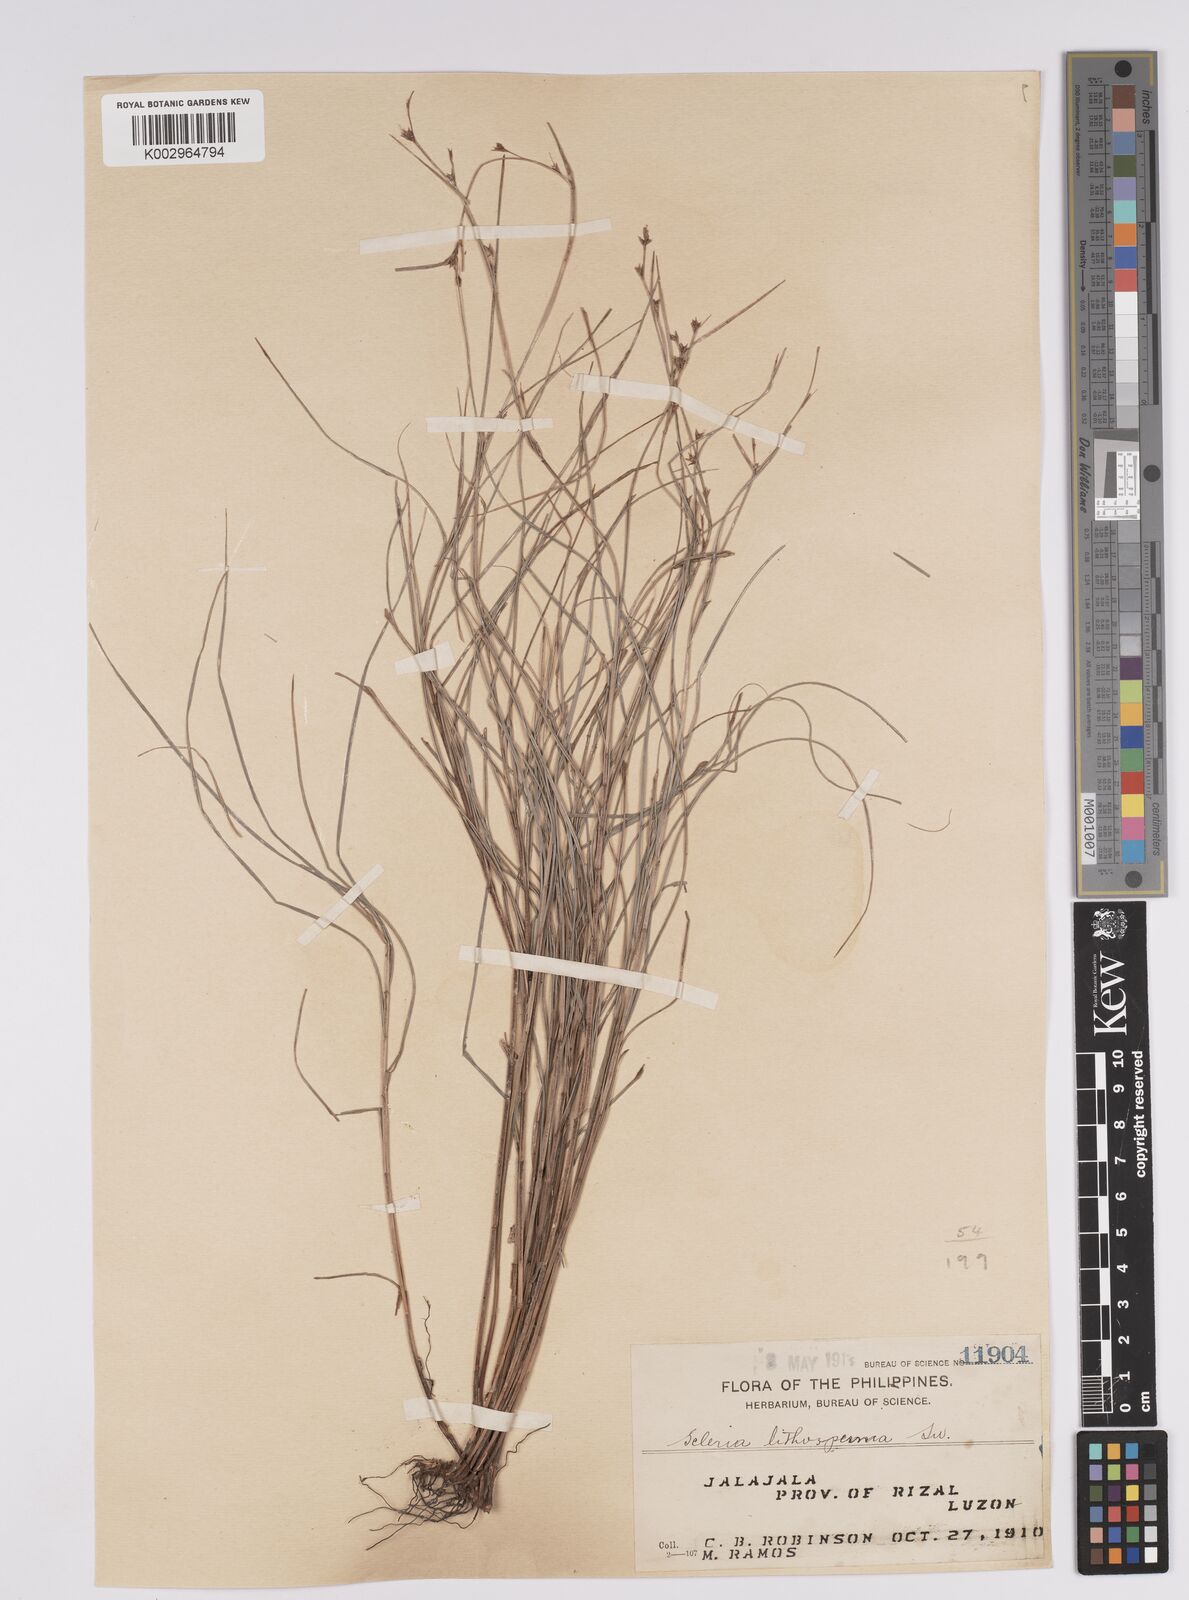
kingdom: Plantae
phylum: Tracheophyta
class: Liliopsida
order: Poales
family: Cyperaceae
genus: Scleria
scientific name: Scleria lithosperma
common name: Florida keys nut-rush
